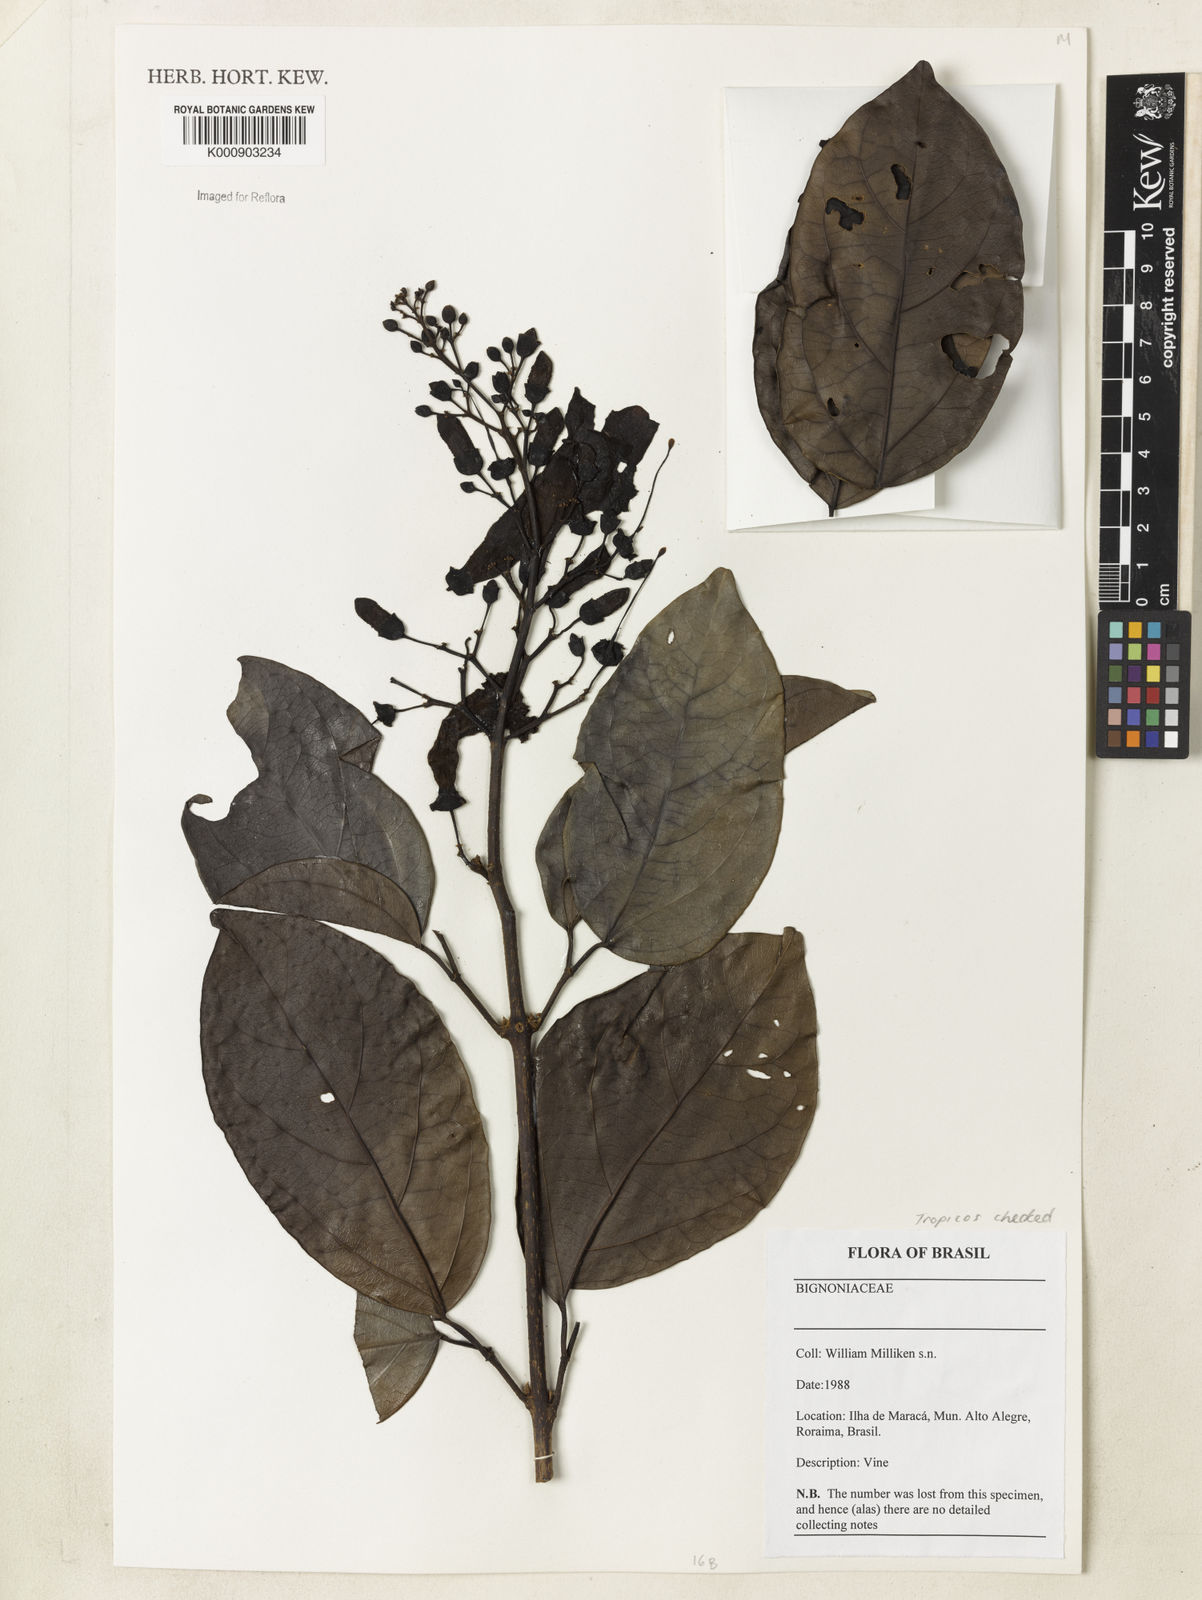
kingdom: Plantae
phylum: Tracheophyta
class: Magnoliopsida
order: Lamiales
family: Bignoniaceae
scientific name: Bignoniaceae
